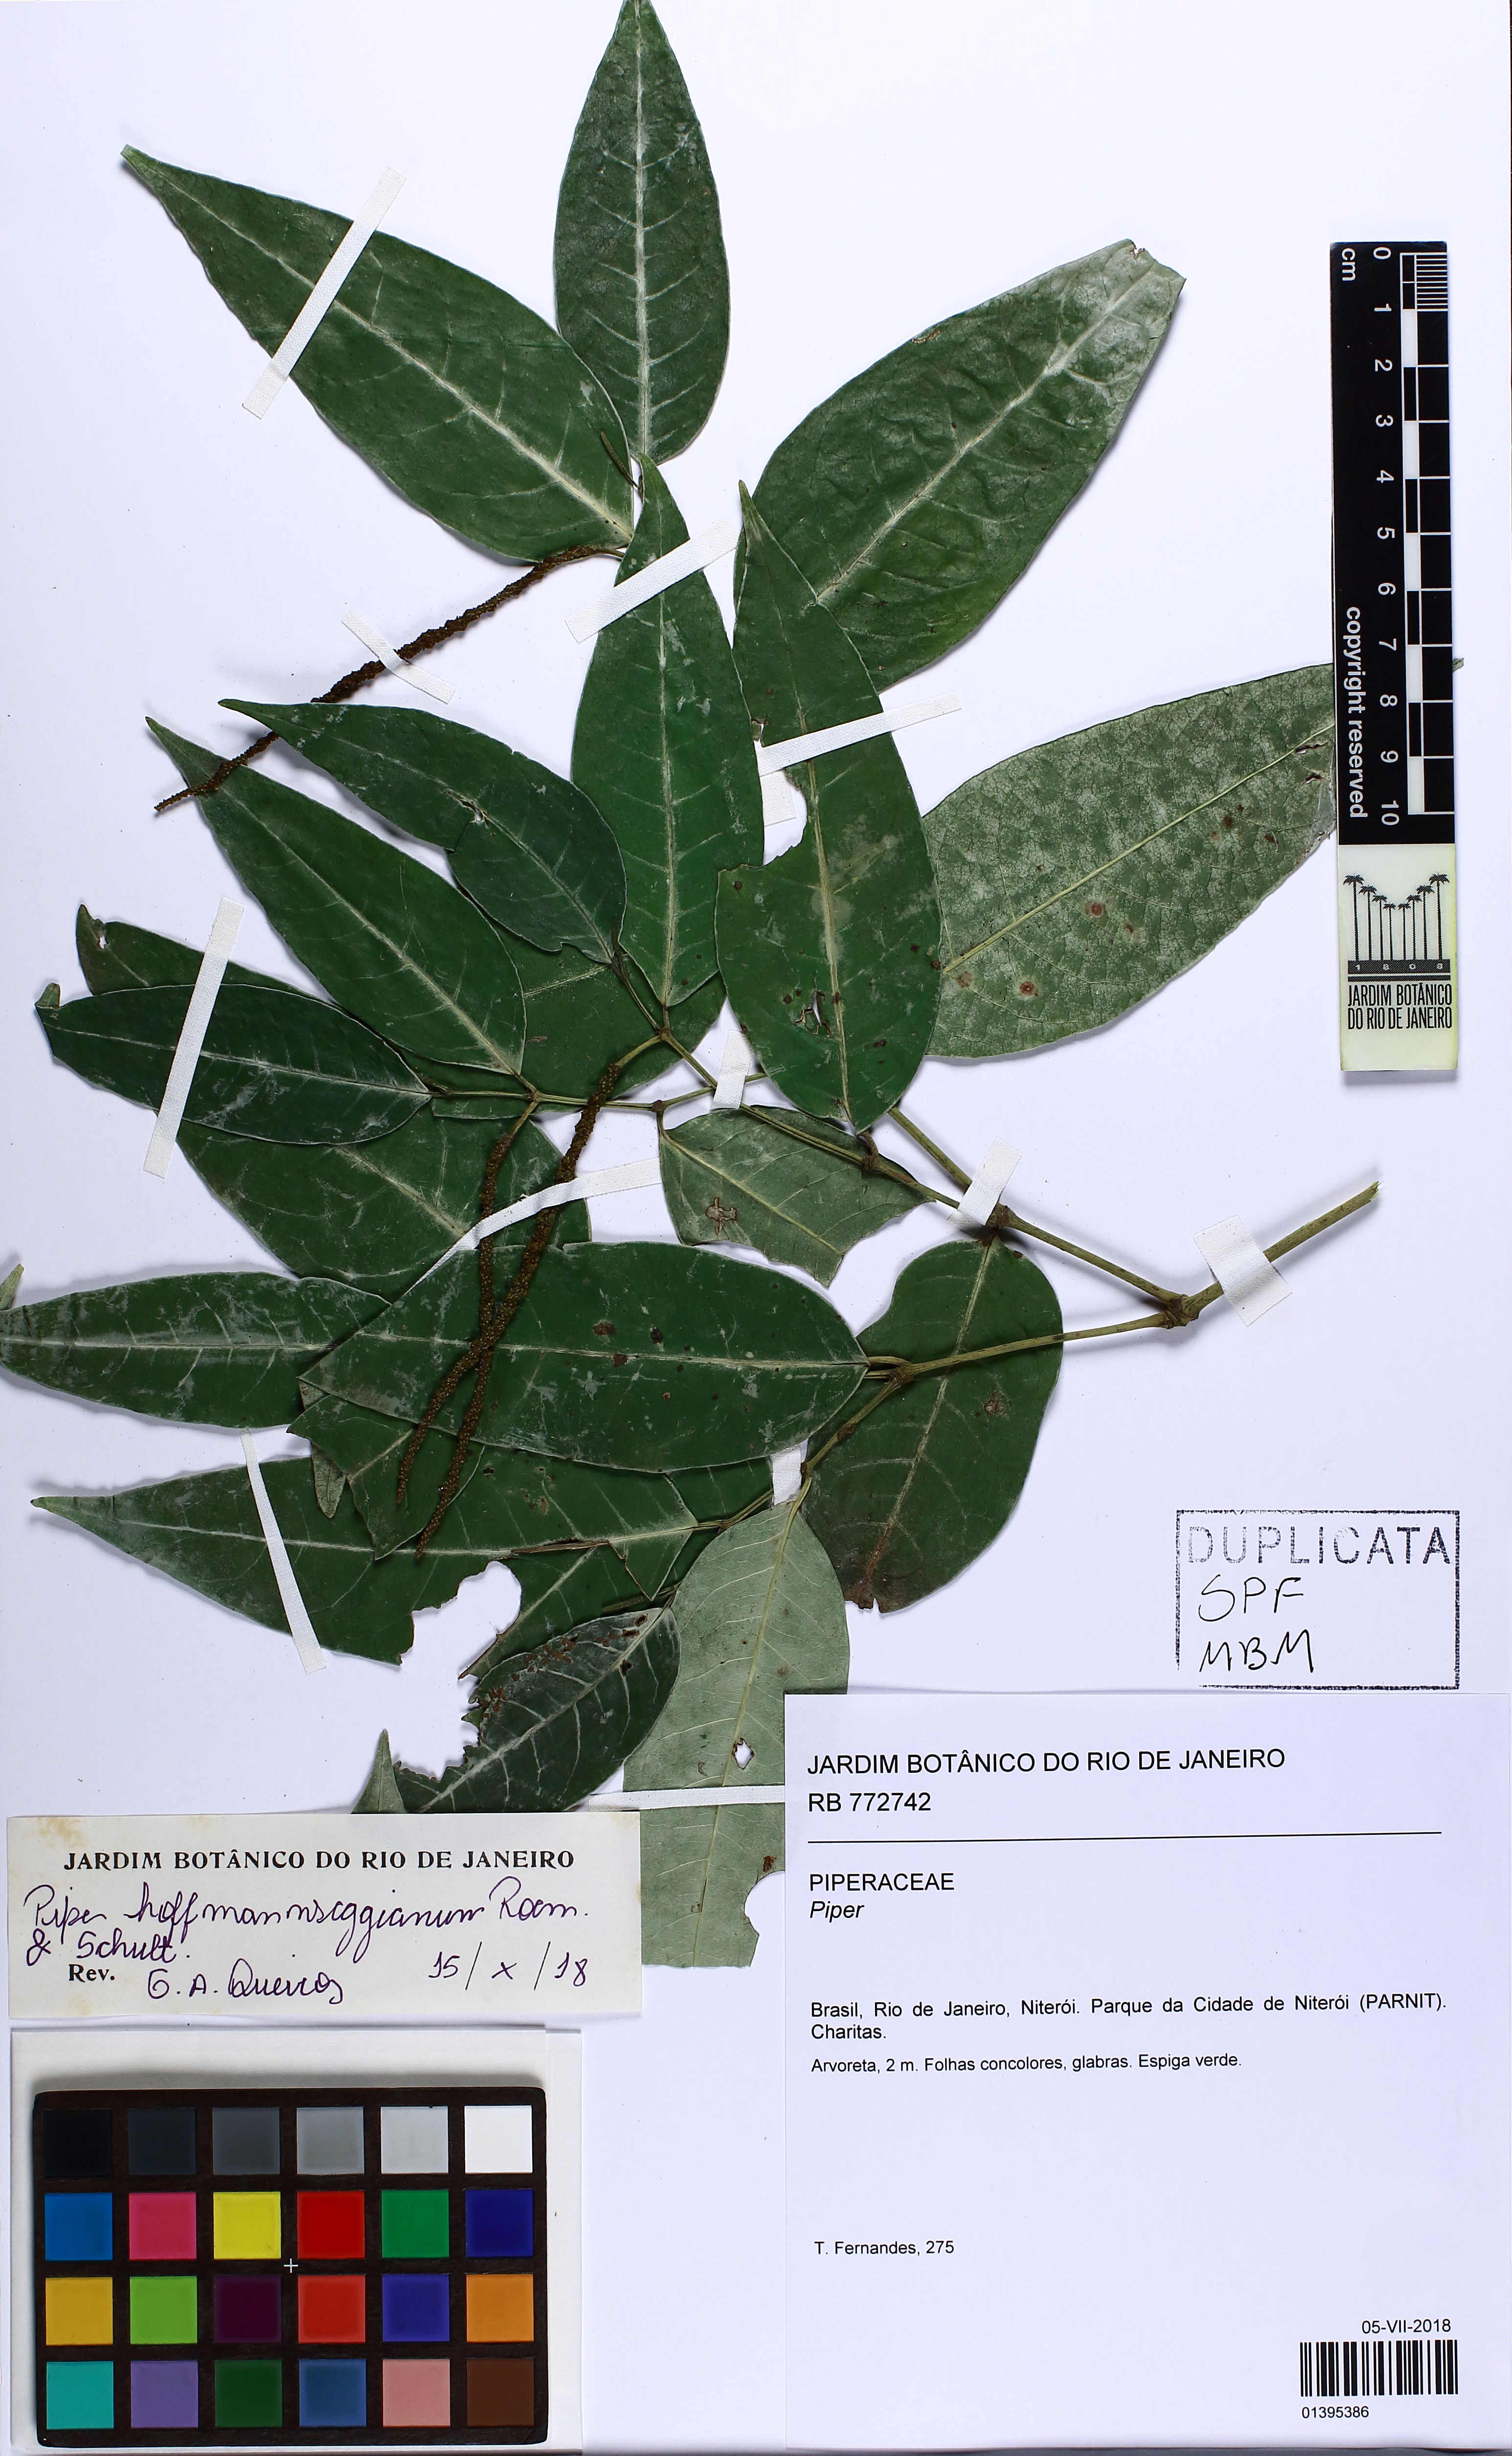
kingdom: Plantae
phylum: Tracheophyta
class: Magnoliopsida
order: Piperales
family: Piperaceae
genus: Piper
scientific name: Piper hoffmannseggianum
